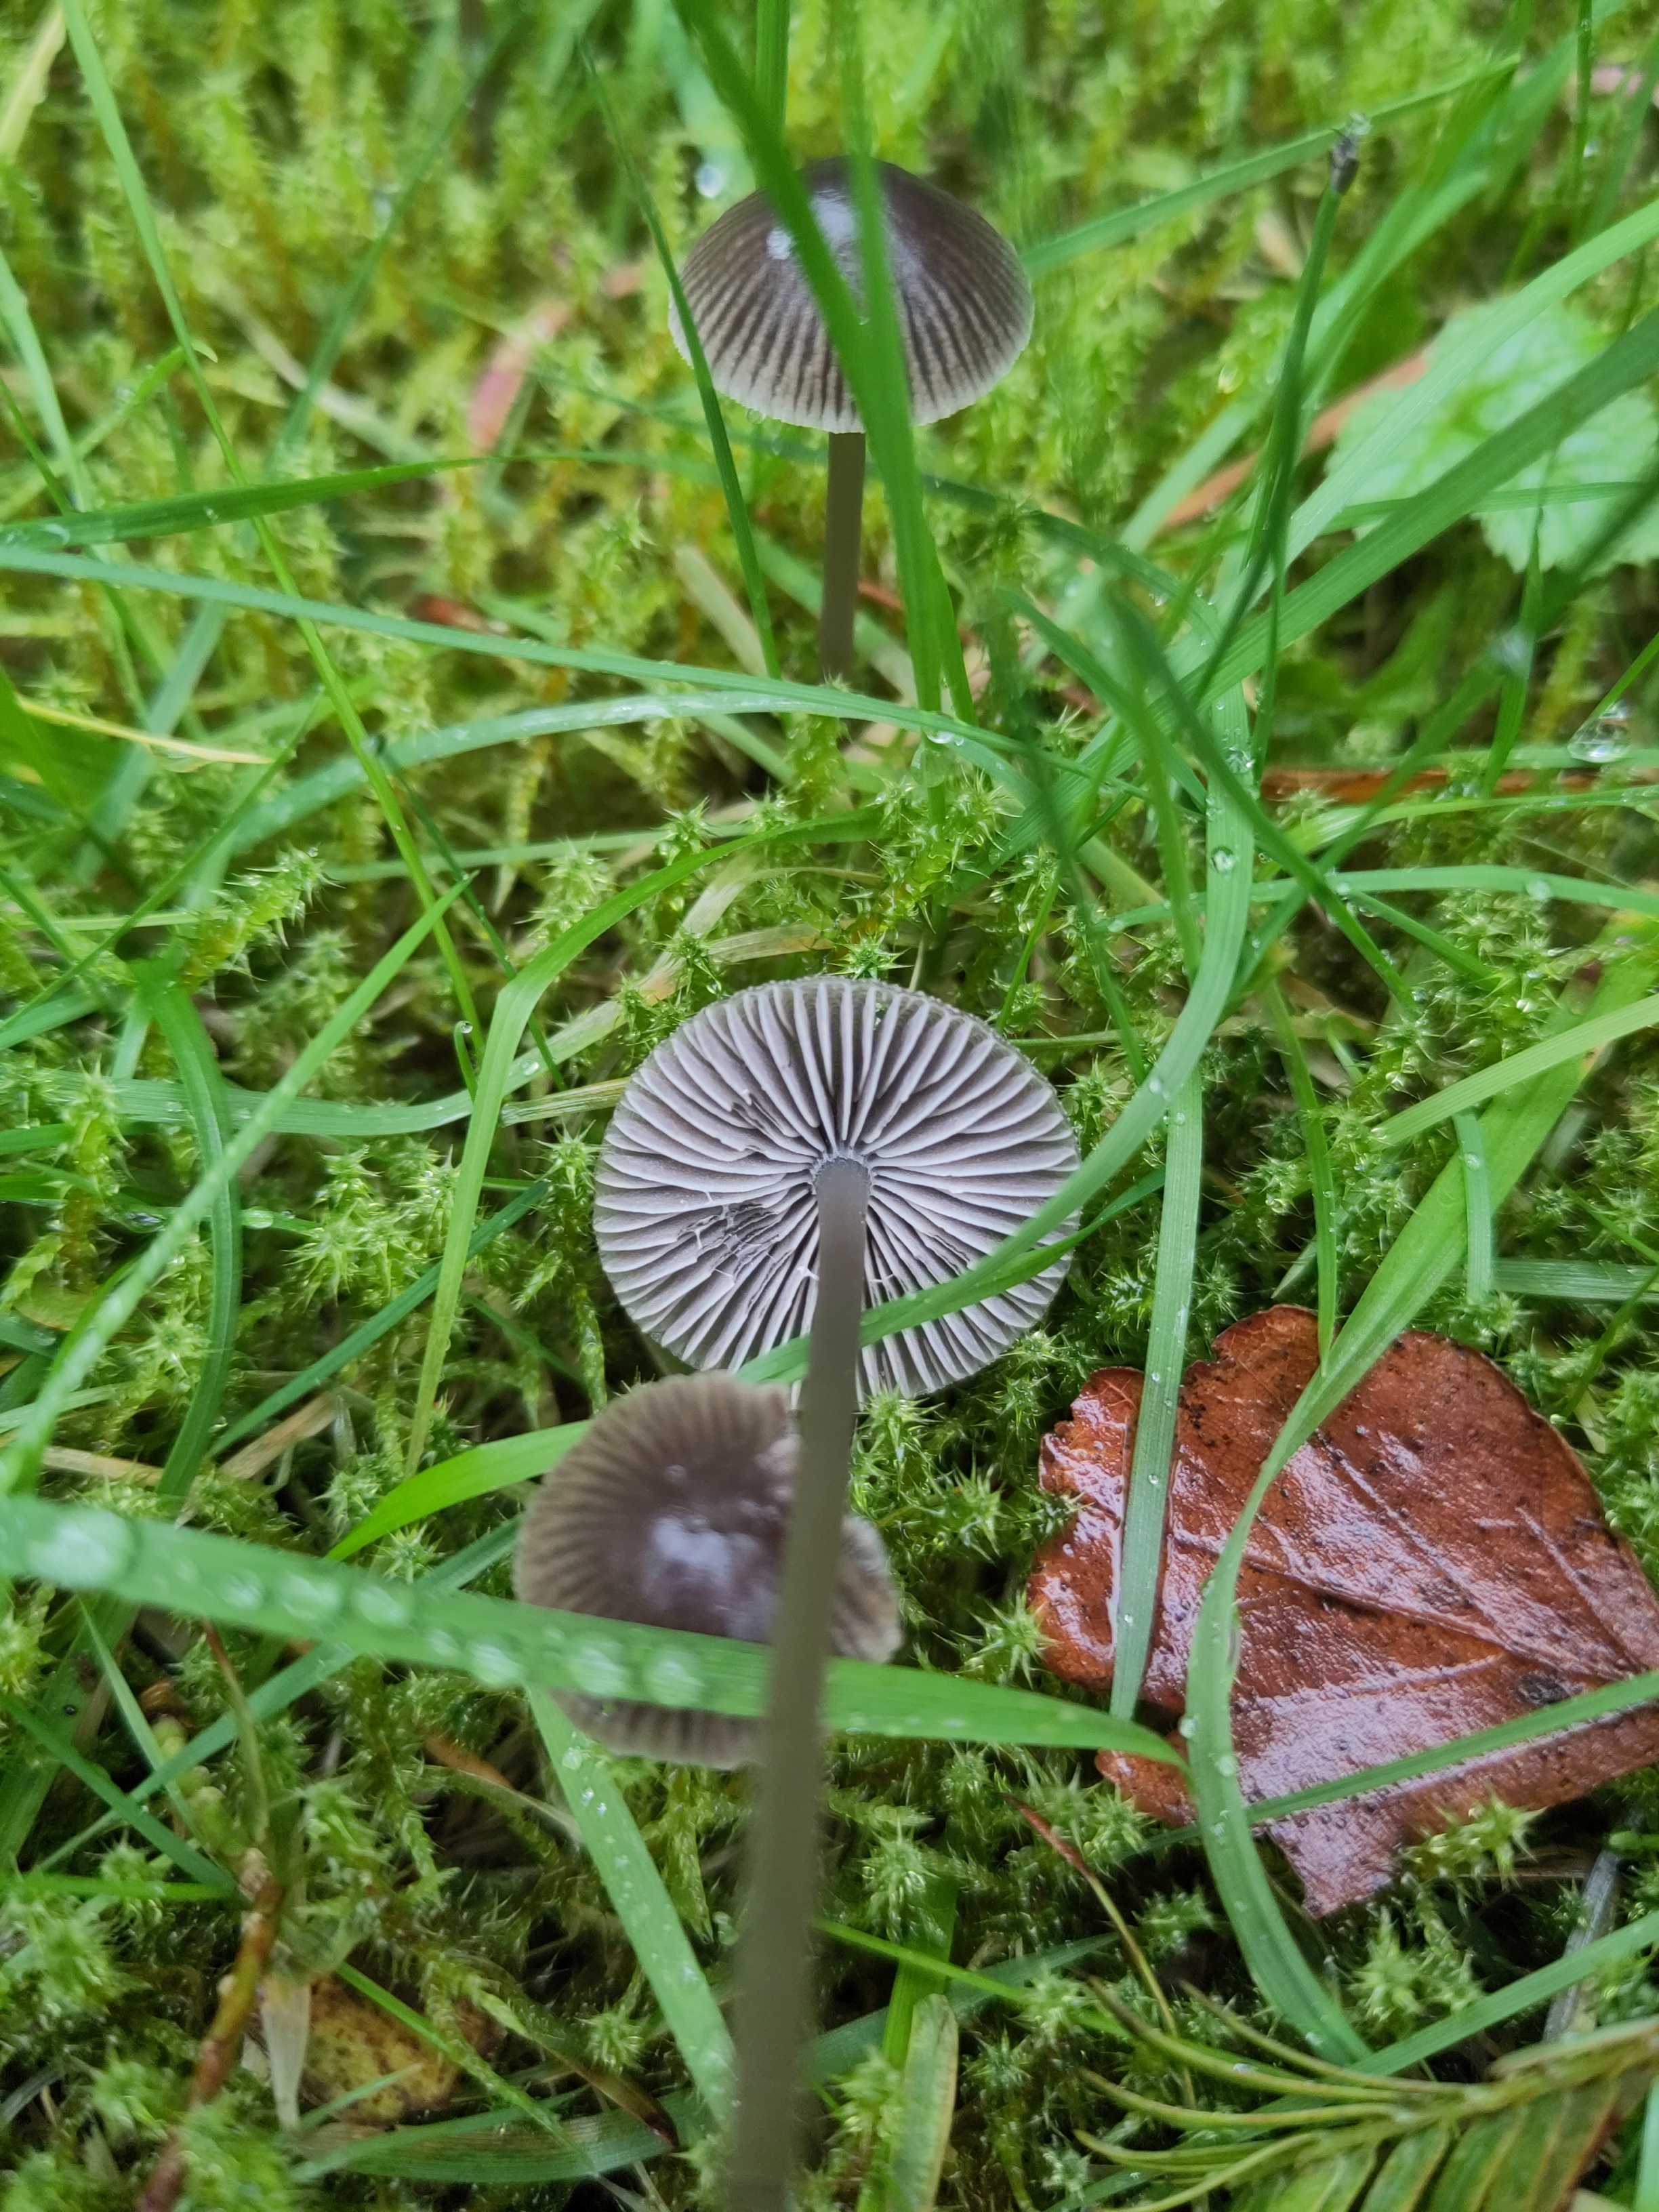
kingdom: Fungi
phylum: Basidiomycota
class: Agaricomycetes
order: Agaricales
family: Mycenaceae
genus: Mycena
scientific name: Mycena
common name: huesvamp
